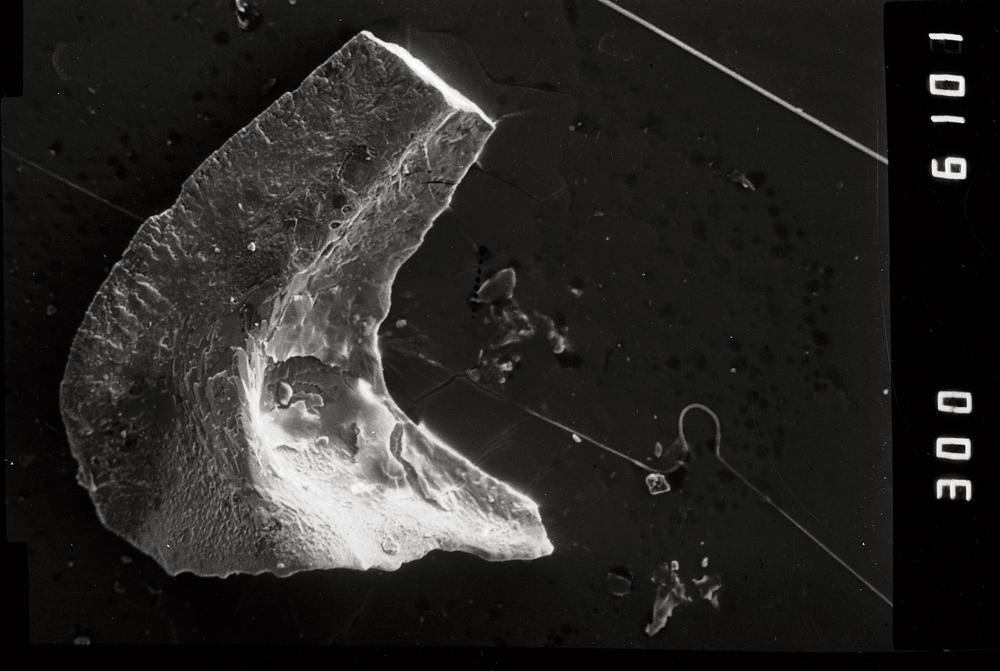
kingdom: Animalia
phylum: Chordata
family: Acodontidae
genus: Tripodus
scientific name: Tripodus
